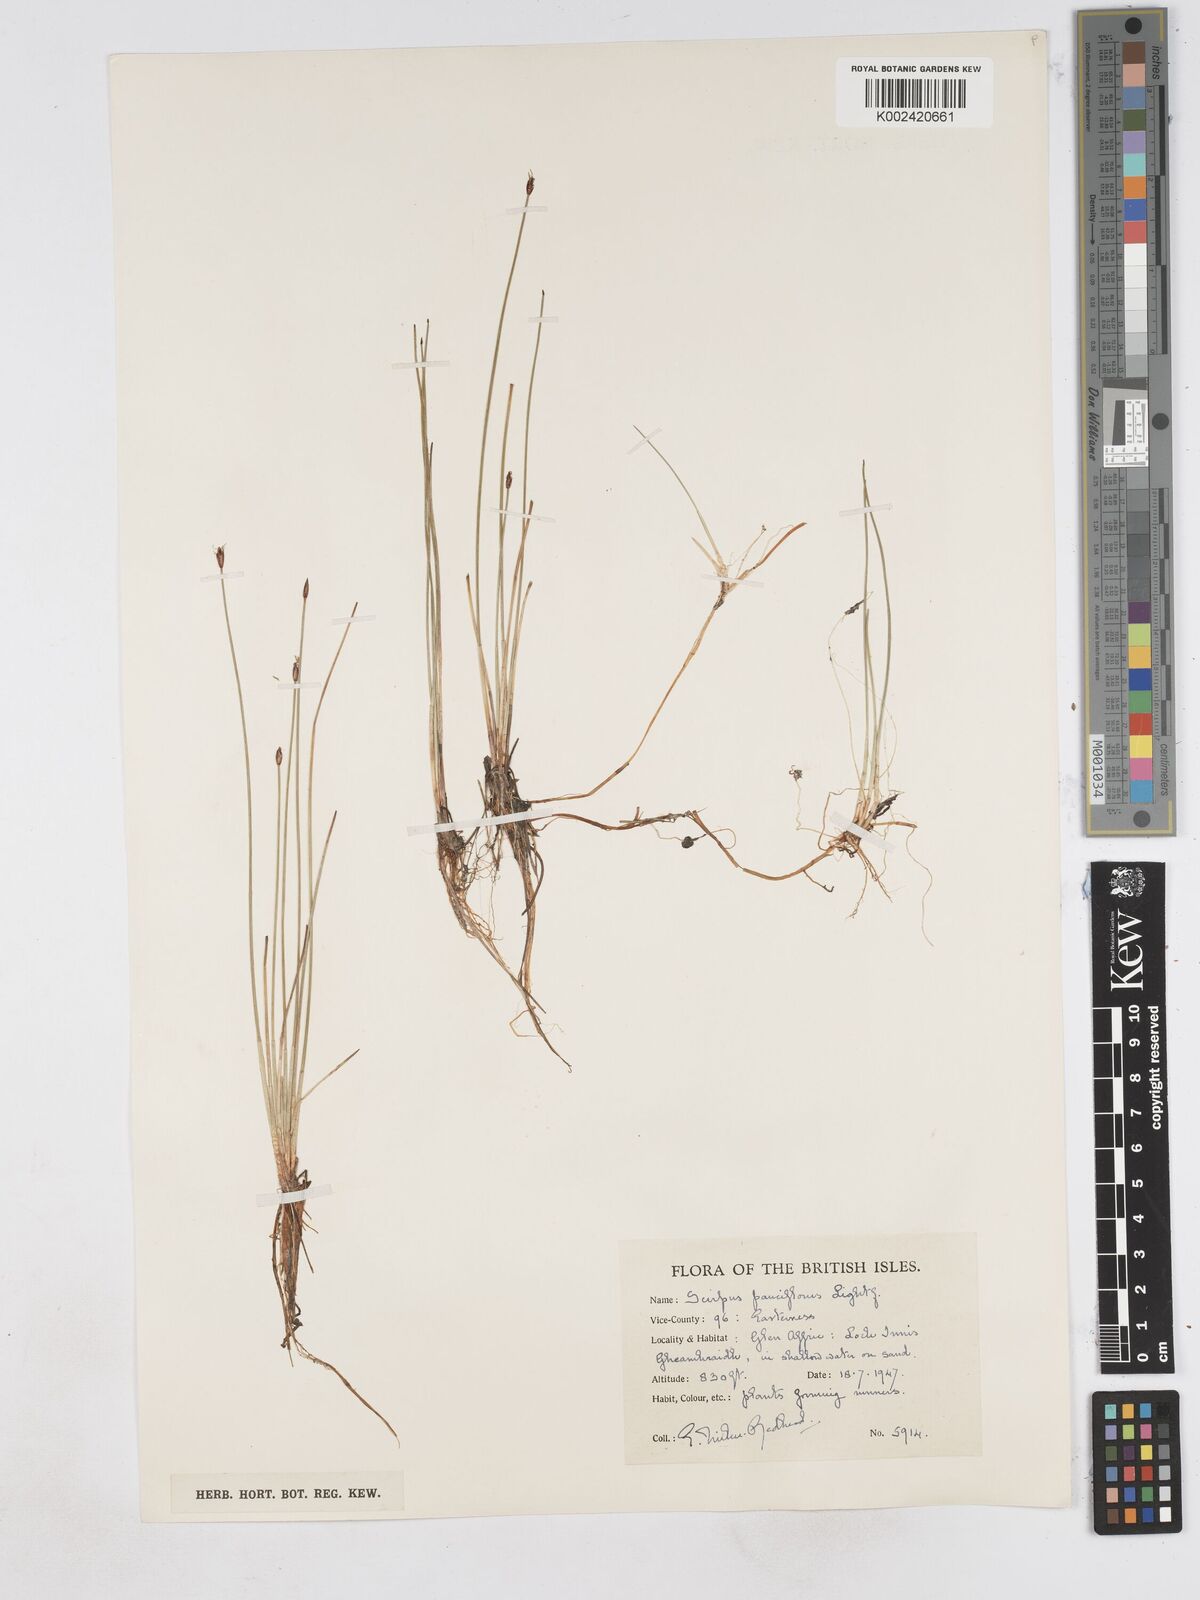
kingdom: Plantae
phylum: Tracheophyta
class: Liliopsida
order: Poales
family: Cyperaceae
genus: Eleocharis
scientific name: Eleocharis quinqueflora
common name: Few-flowered spike-rush
